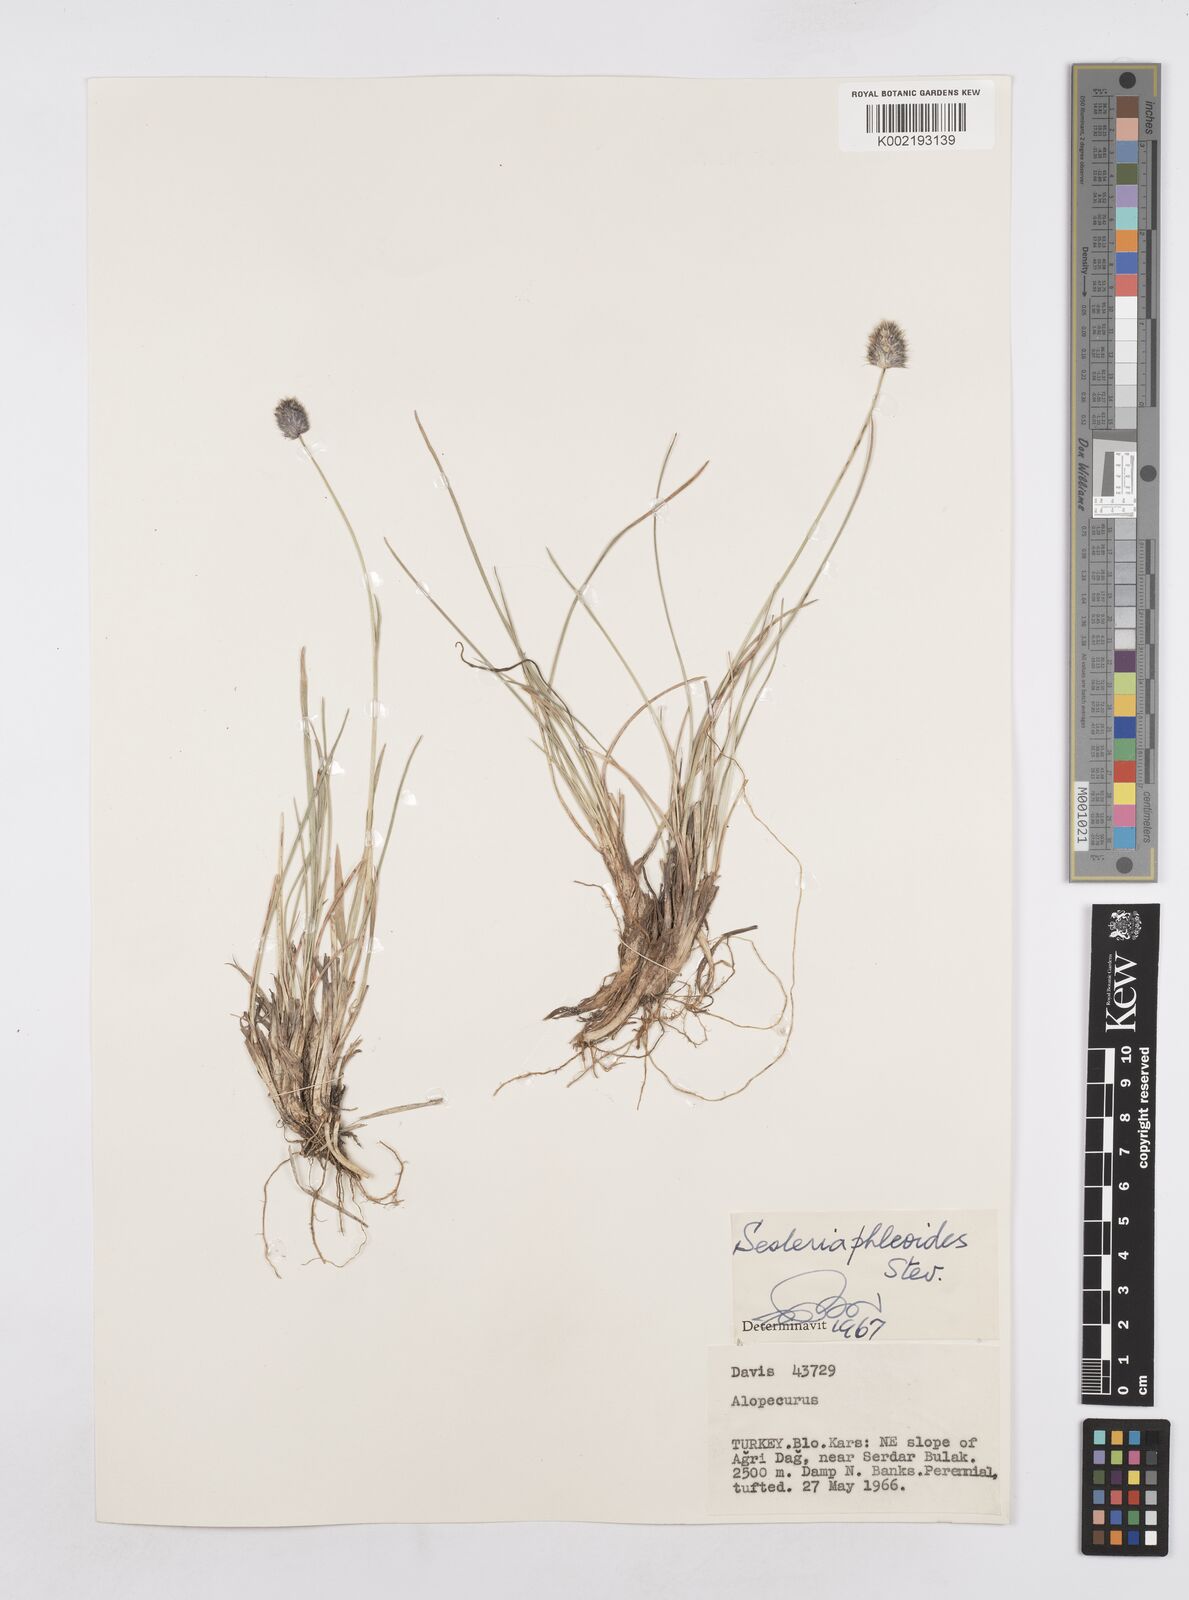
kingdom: Plantae
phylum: Tracheophyta
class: Liliopsida
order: Poales
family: Poaceae
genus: Sesleria
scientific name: Sesleria phleoides
